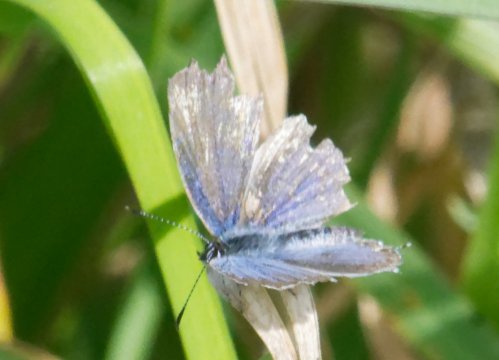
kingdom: Animalia
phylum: Arthropoda
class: Insecta
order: Lepidoptera
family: Lycaenidae
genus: Elkalyce
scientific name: Elkalyce comyntas
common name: Eastern Tailed-Blue
